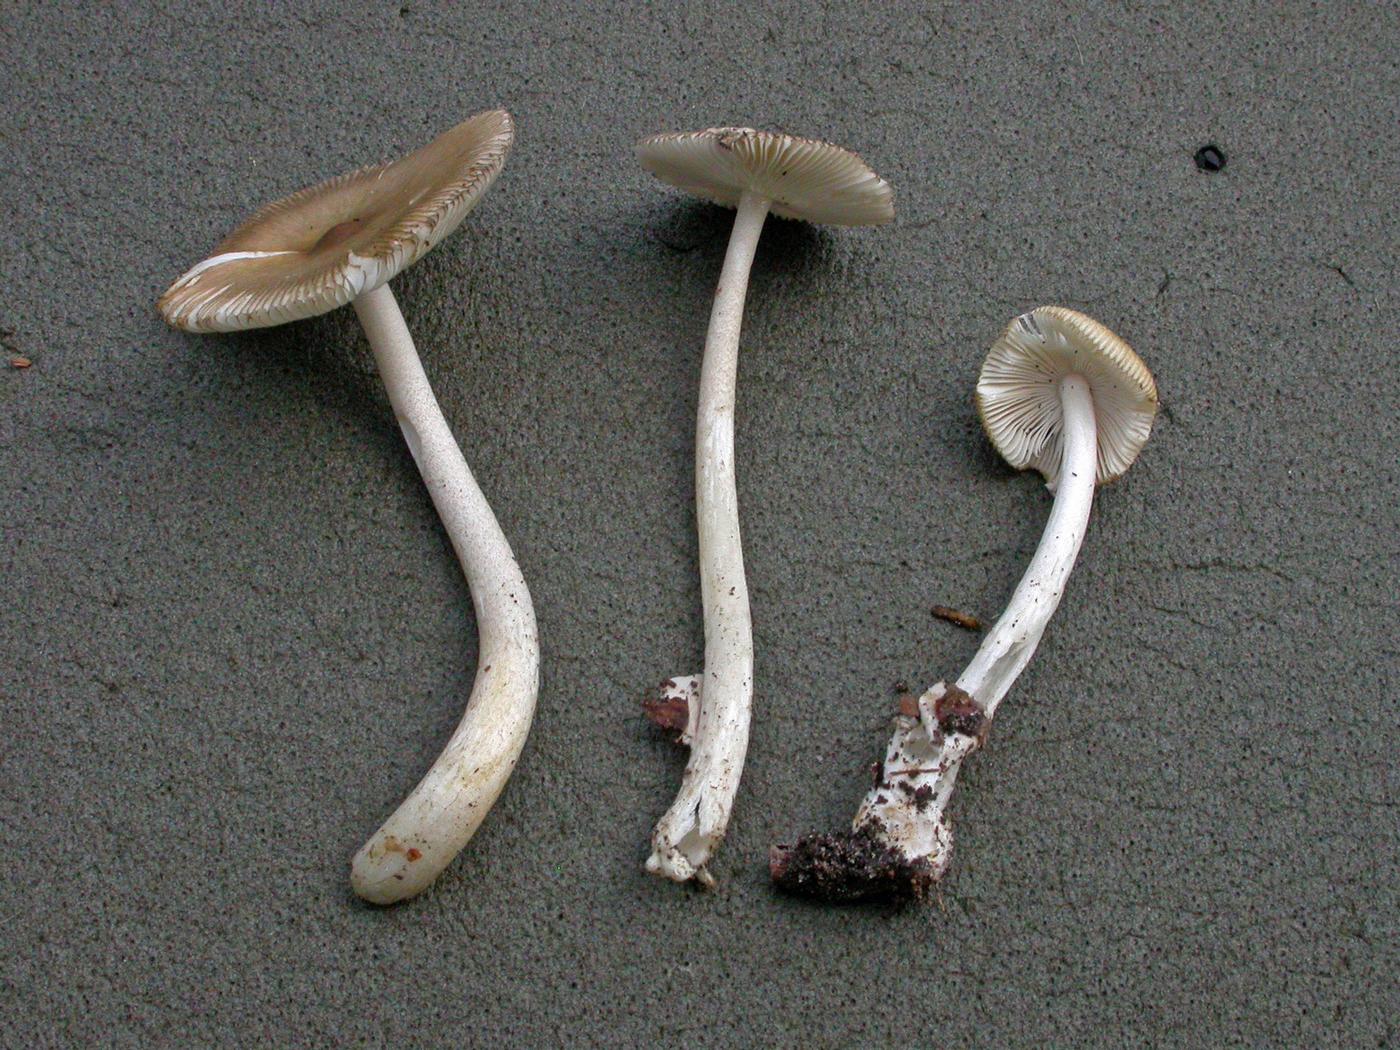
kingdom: Fungi
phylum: Basidiomycota
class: Agaricomycetes
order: Agaricales
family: Amanitaceae
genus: Amanita
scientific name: Amanita olivaceogrisea
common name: olivengrå kam-fluesvamp
